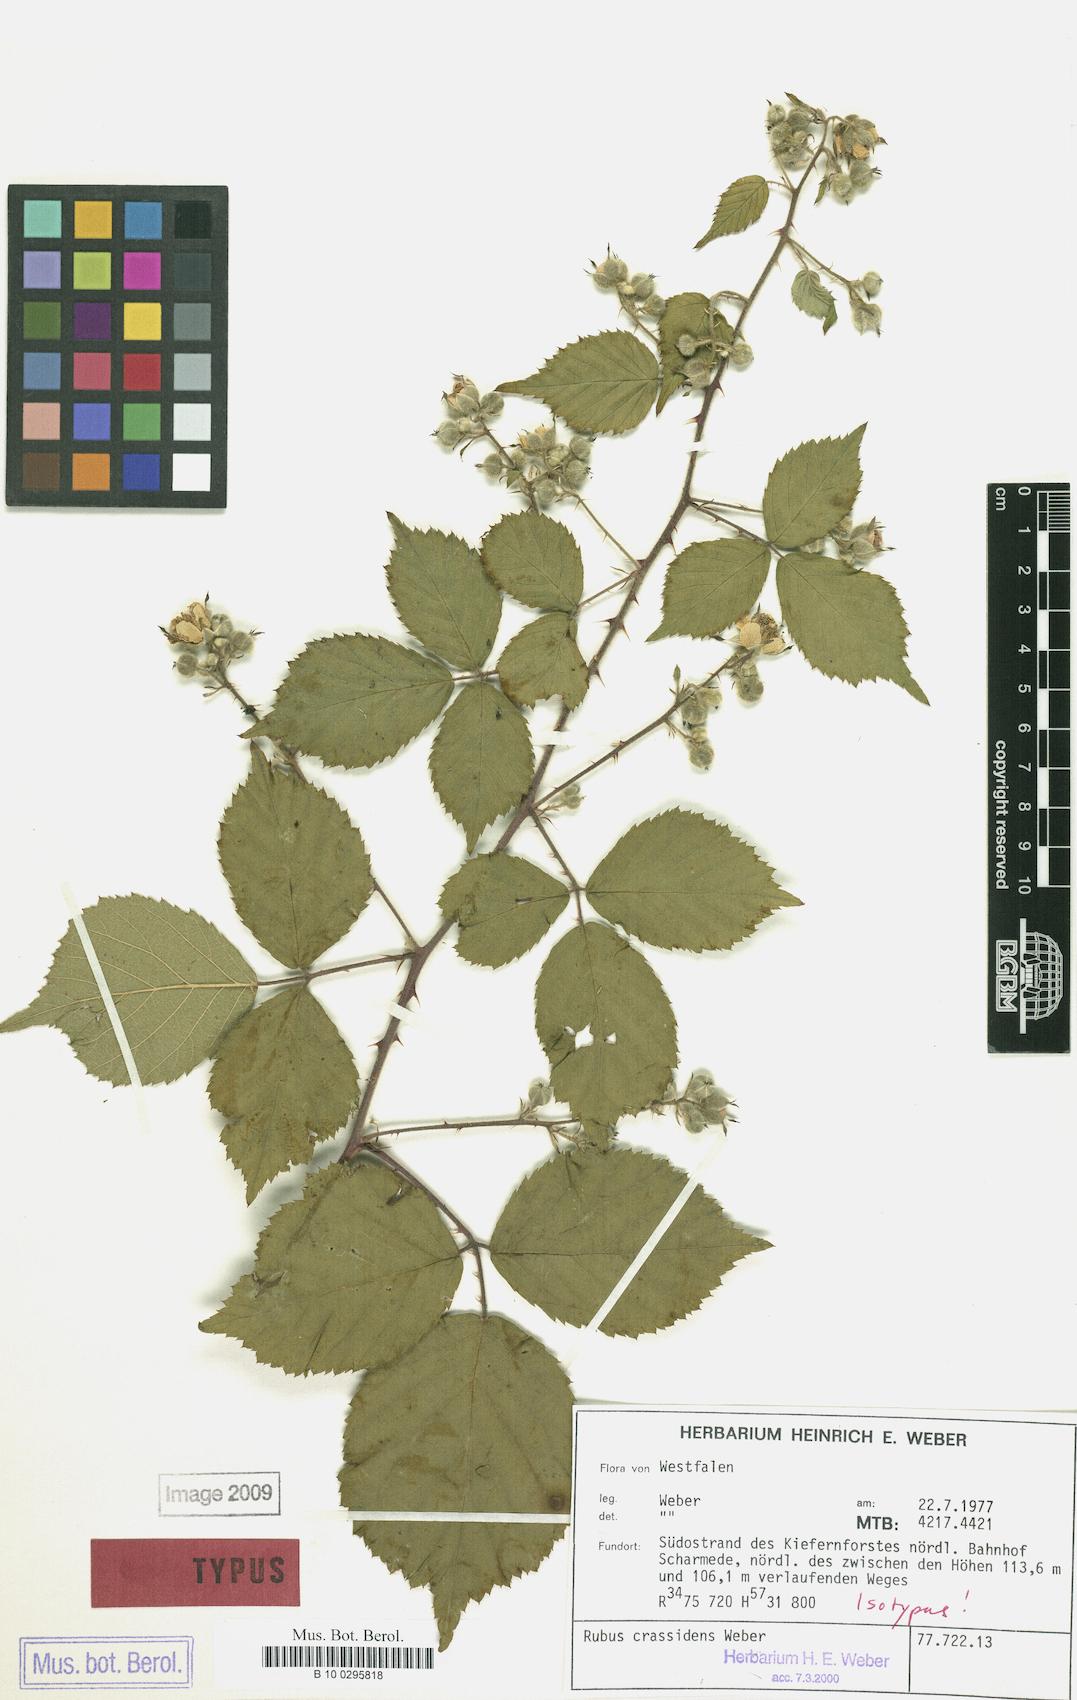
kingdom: Plantae
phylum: Tracheophyta
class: Magnoliopsida
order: Rosales
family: Rosaceae
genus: Rubus
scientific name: Rubus crassidens
